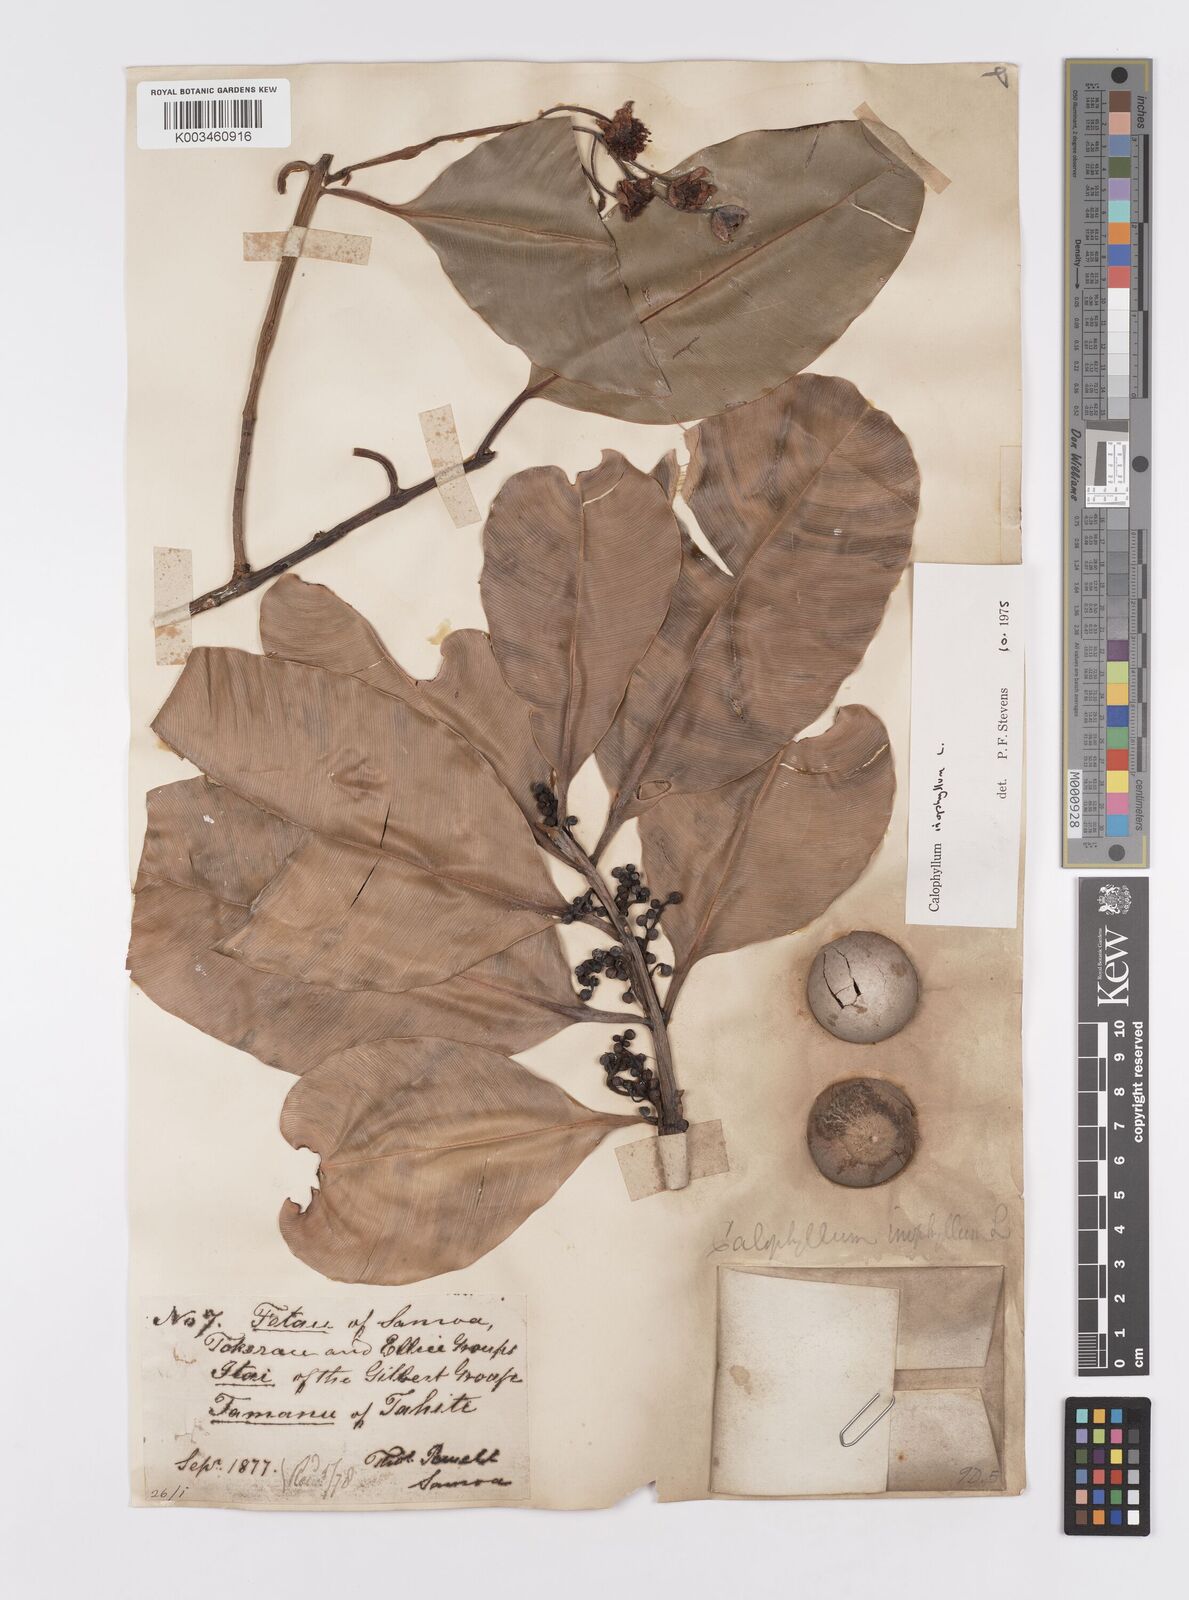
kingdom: Plantae
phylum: Tracheophyta
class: Magnoliopsida
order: Malpighiales
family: Calophyllaceae
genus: Calophyllum
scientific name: Calophyllum inophyllum
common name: Alexandrian laurel
